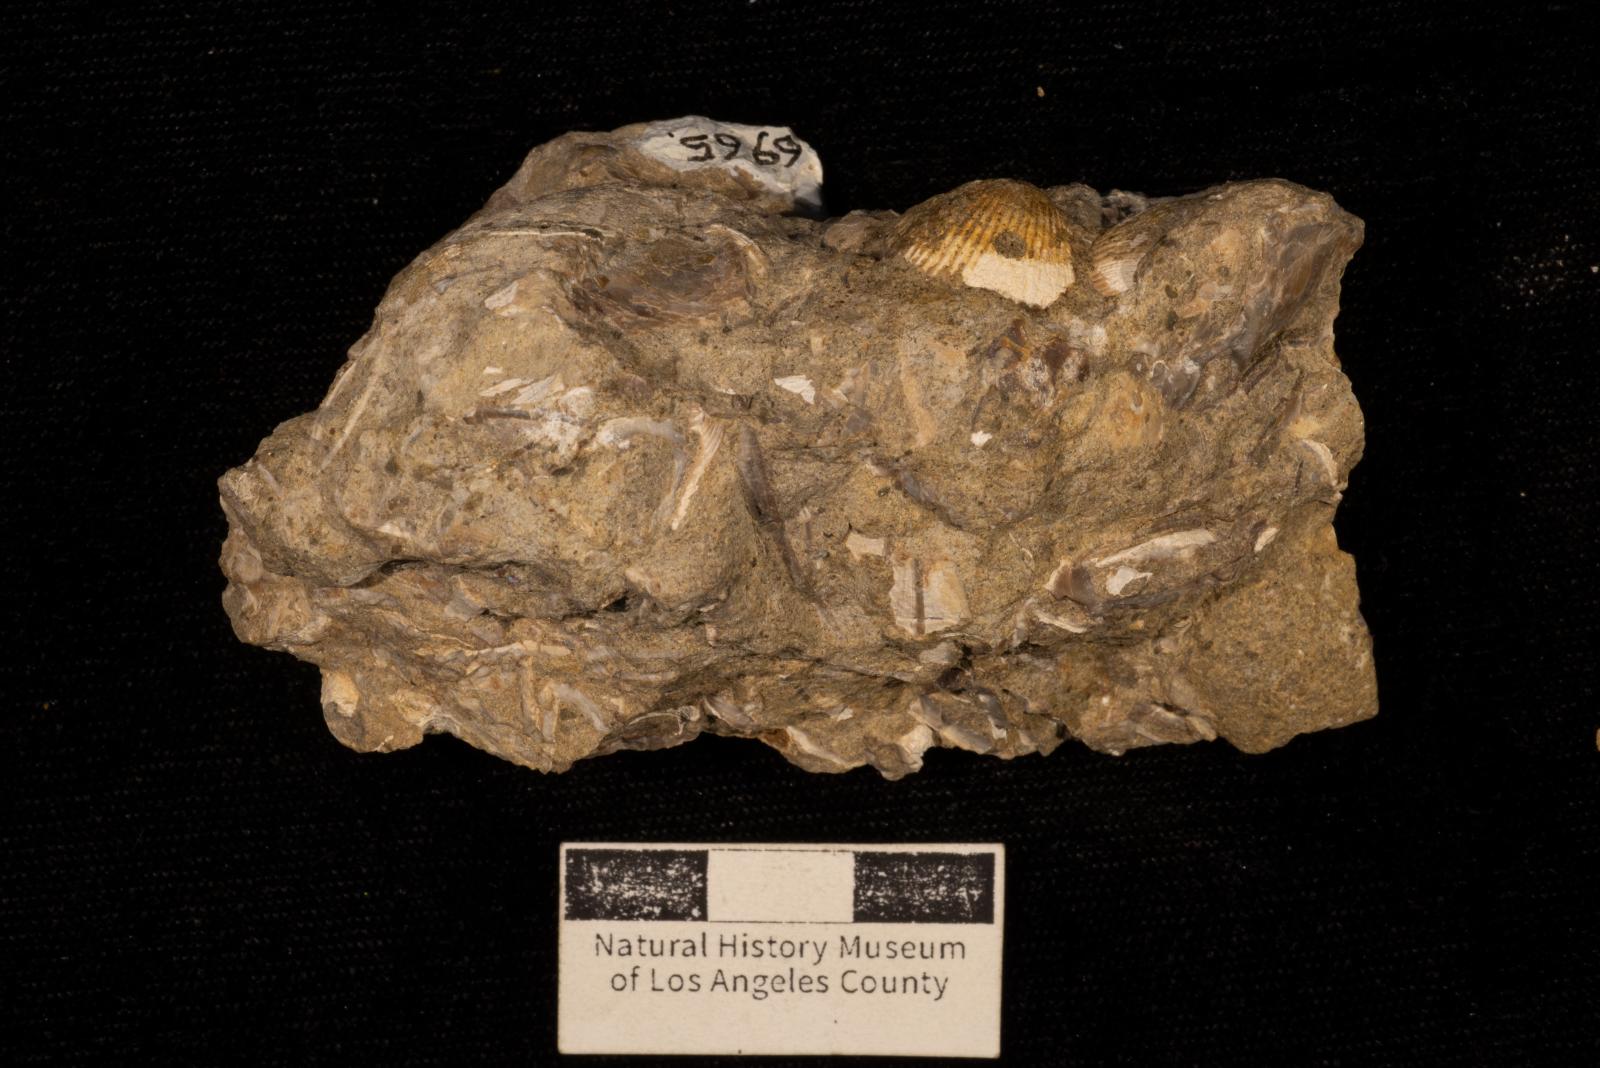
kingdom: Animalia
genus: Oichnus
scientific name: Oichnus
